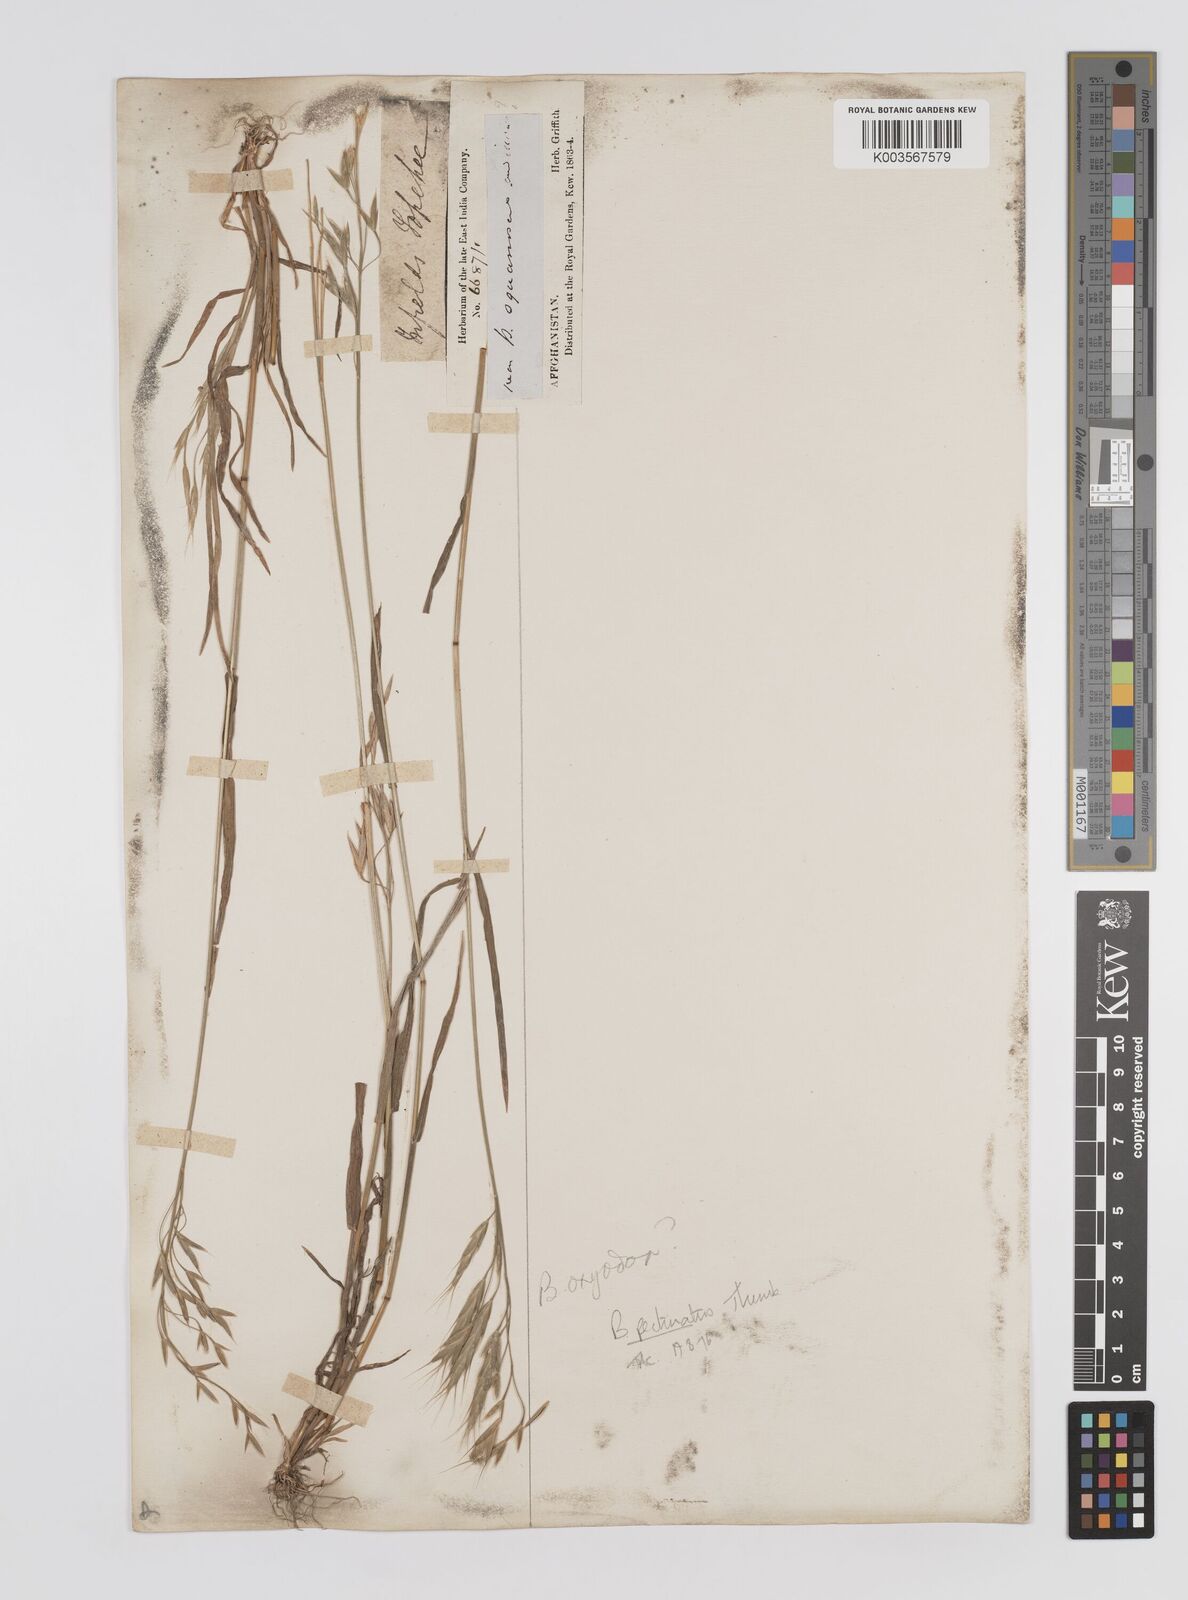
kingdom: Plantae
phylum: Tracheophyta
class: Liliopsida
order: Poales
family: Poaceae
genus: Bromus
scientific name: Bromus pectinatus
